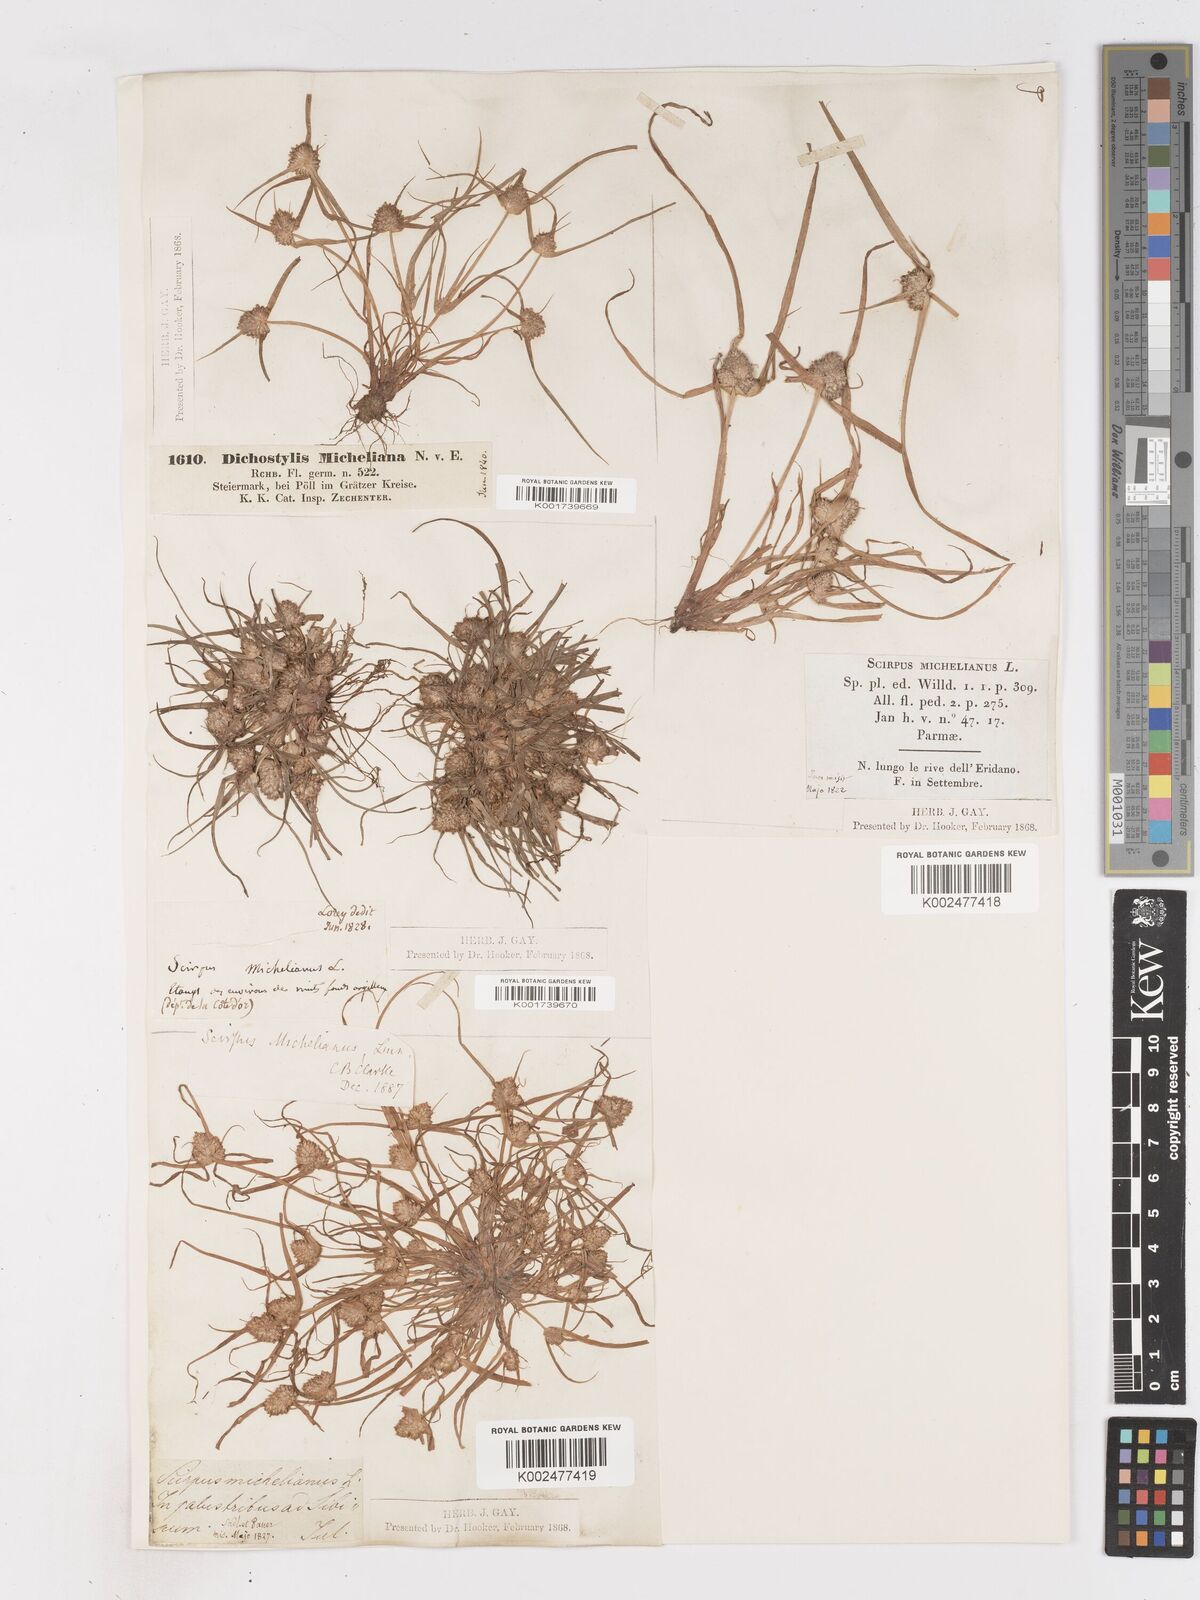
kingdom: Plantae
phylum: Tracheophyta
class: Liliopsida
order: Poales
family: Cyperaceae
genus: Cyperus
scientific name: Cyperus michelianus
